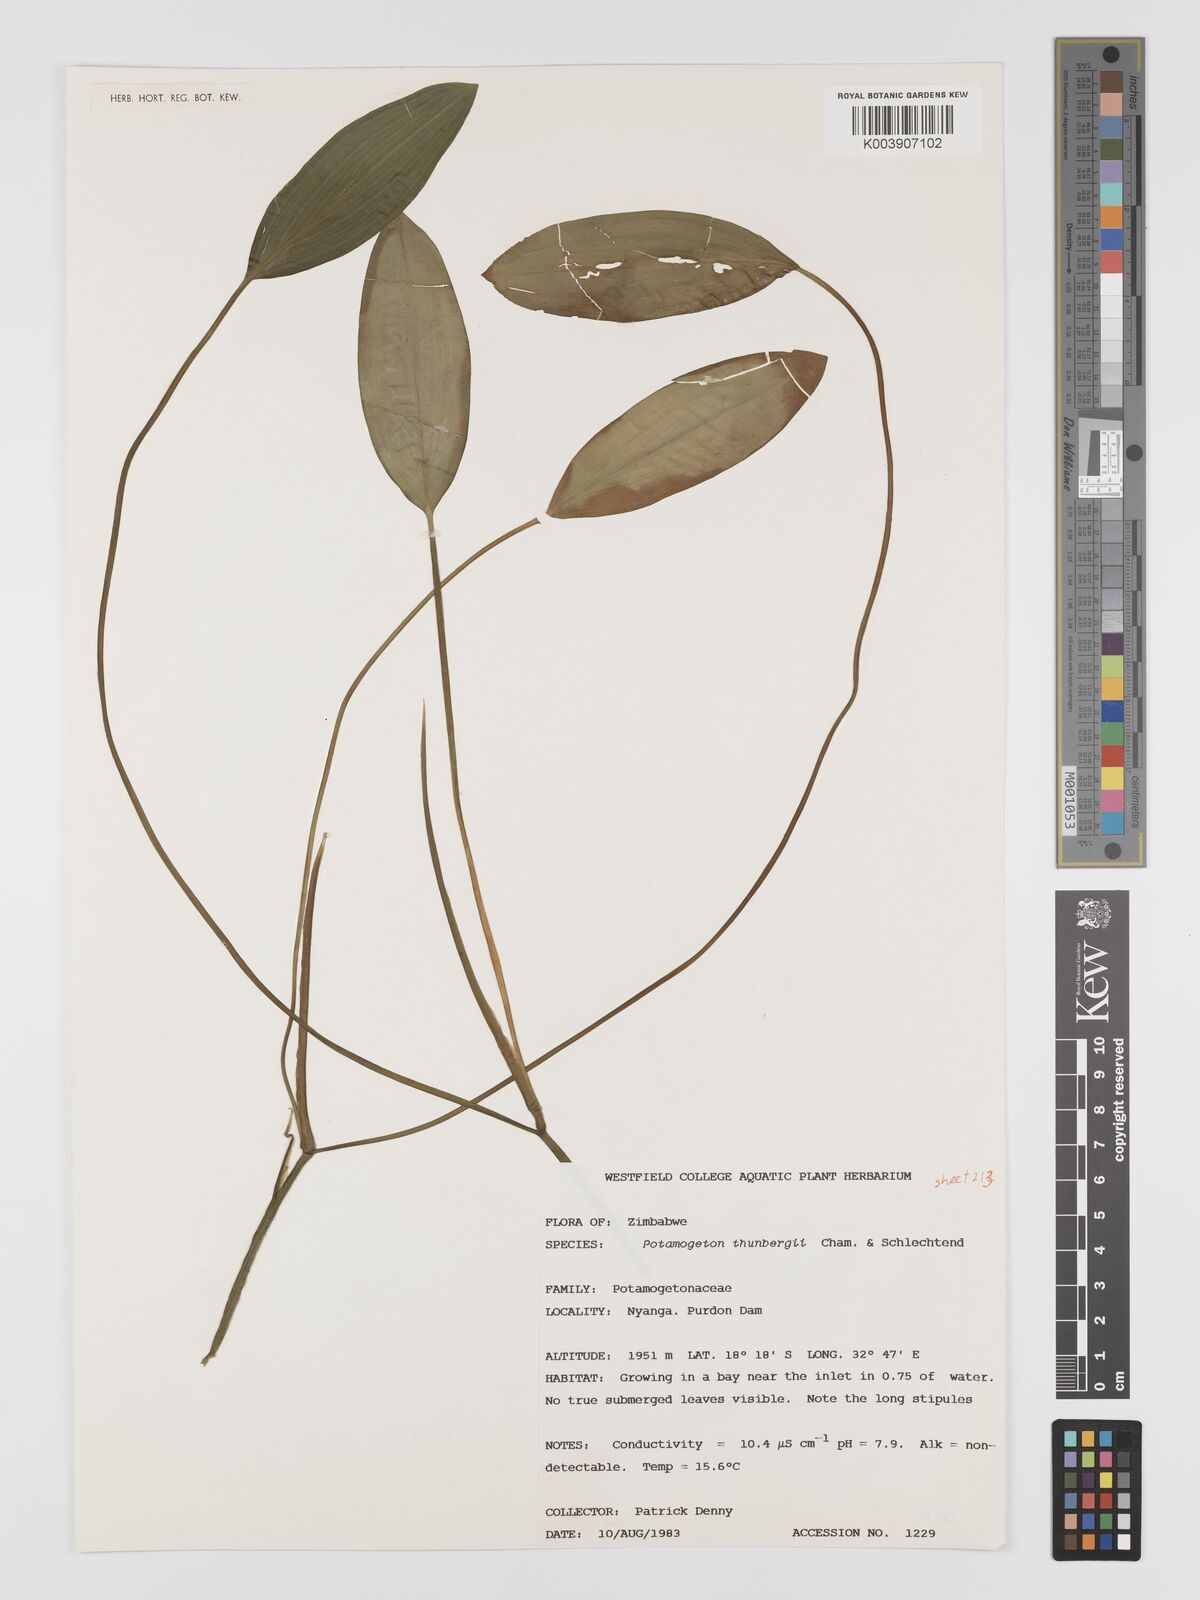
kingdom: Plantae
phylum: Tracheophyta
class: Liliopsida
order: Alismatales
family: Potamogetonaceae
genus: Potamogeton
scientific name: Potamogeton nodosus
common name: Loddon pondweed
